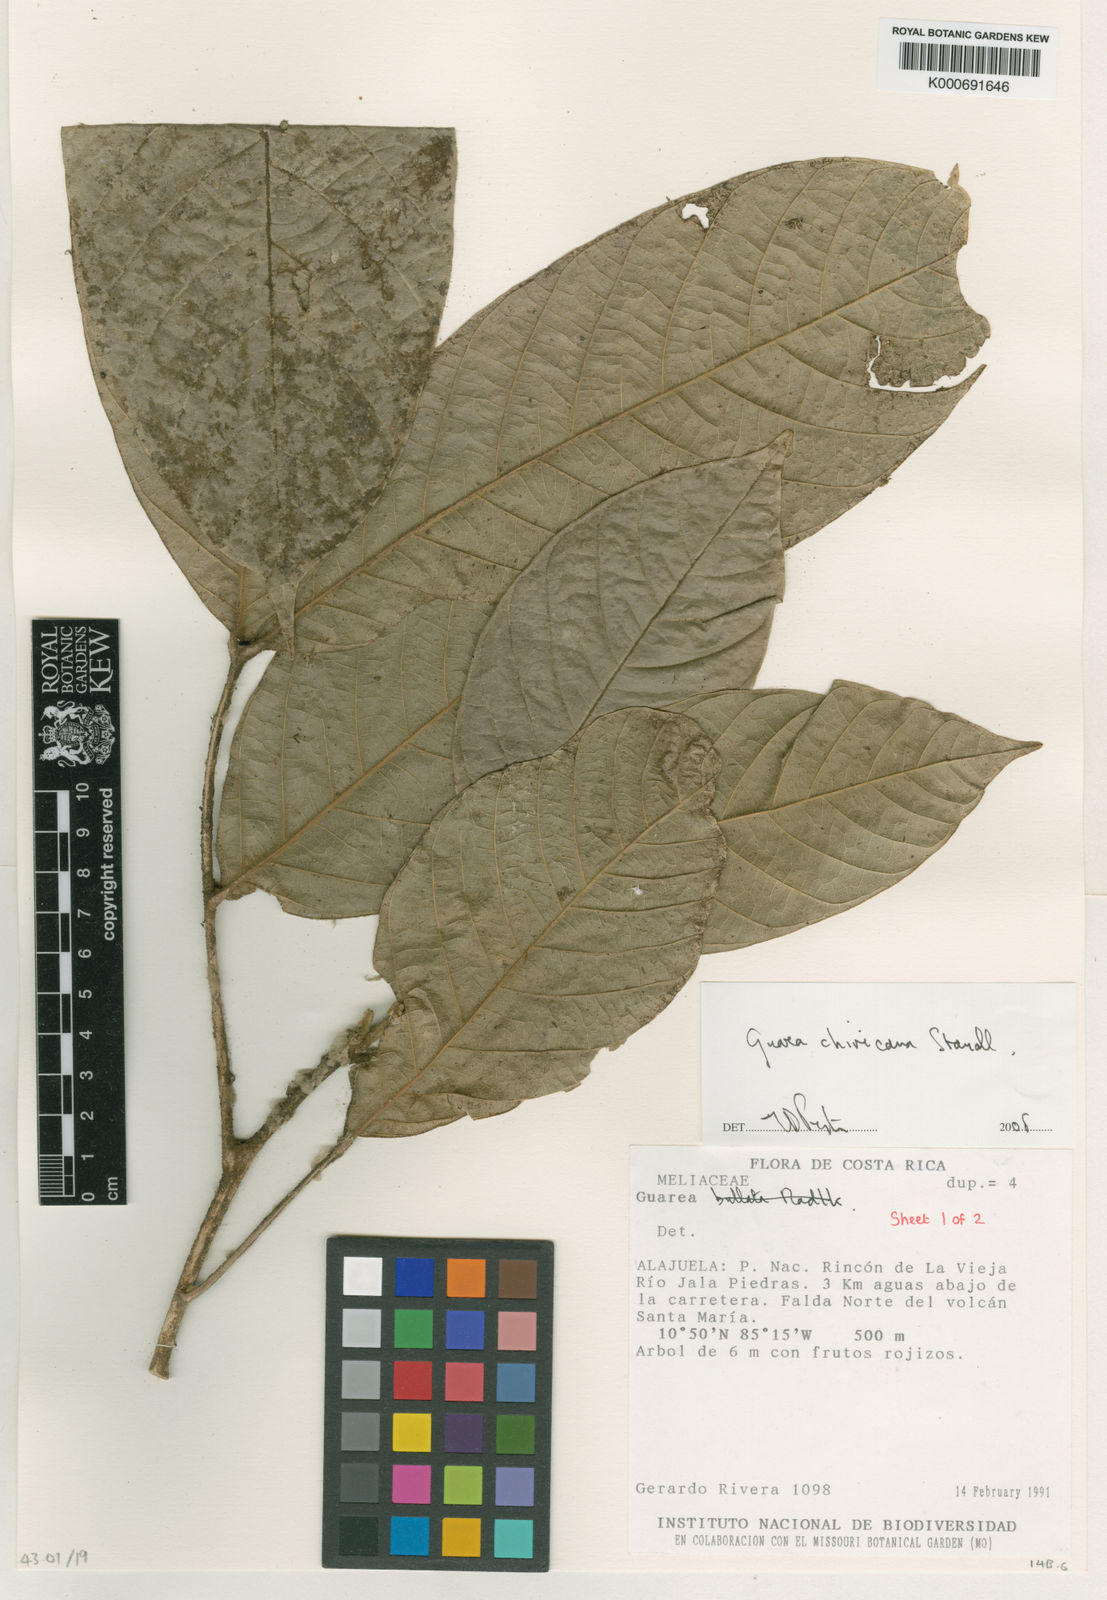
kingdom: Plantae
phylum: Tracheophyta
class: Magnoliopsida
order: Sapindales
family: Meliaceae
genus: Guarea
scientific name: Guarea glabra
